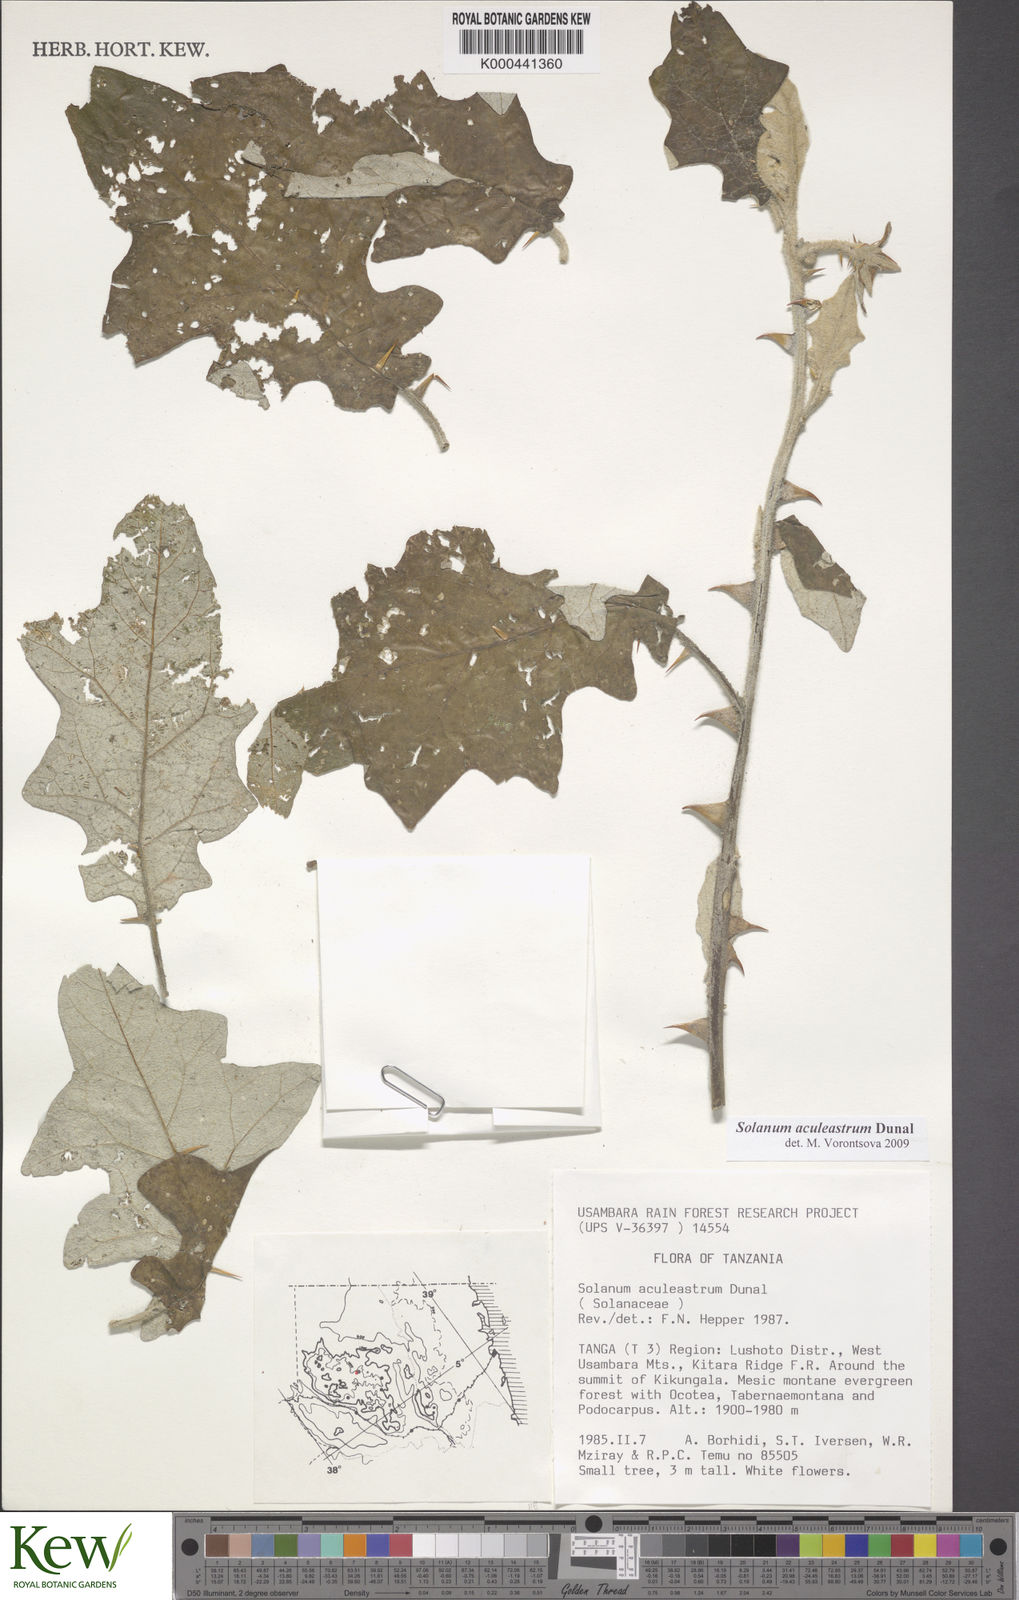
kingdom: Plantae
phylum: Tracheophyta
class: Magnoliopsida
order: Solanales
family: Solanaceae
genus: Solanum
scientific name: Solanum aculeastrum
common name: Goat bitter-apple
